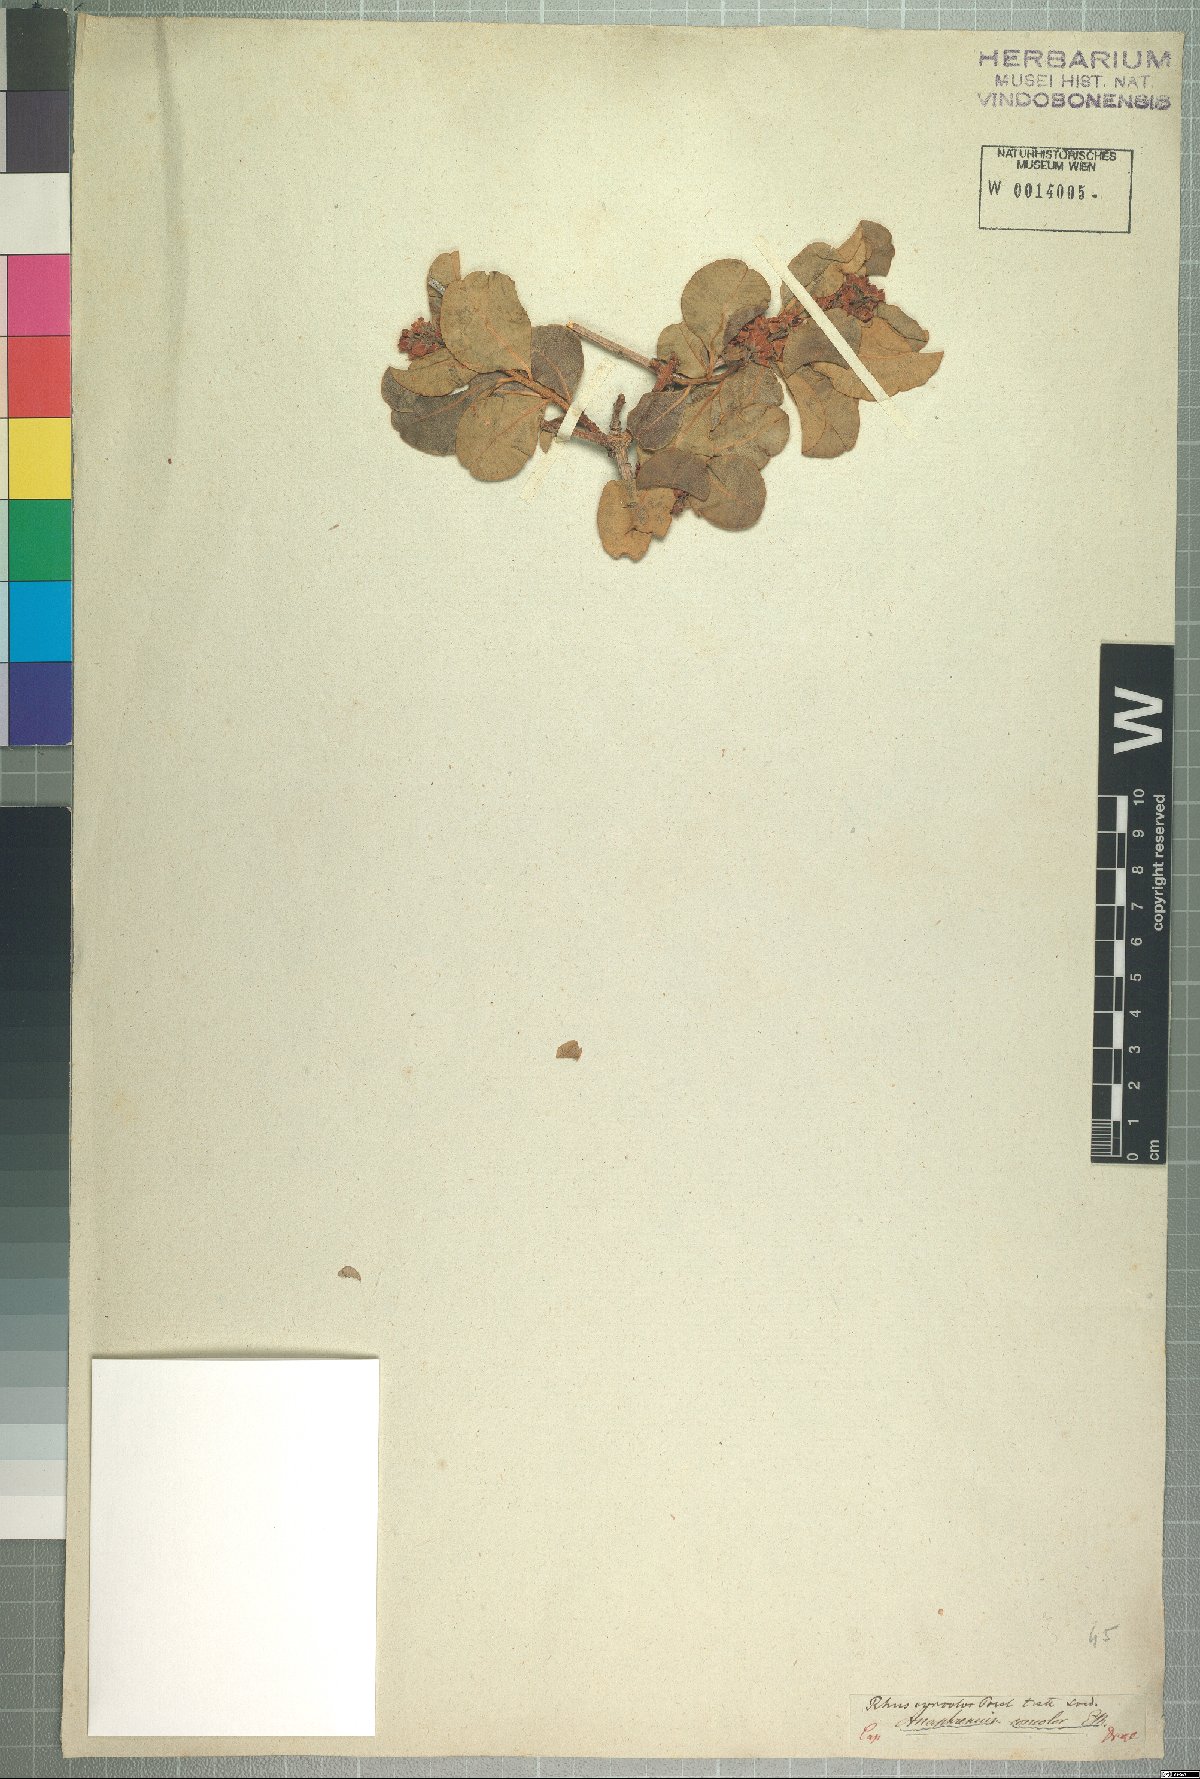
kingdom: Plantae
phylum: Tracheophyta
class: Magnoliopsida
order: Sapindales
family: Anacardiaceae
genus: Ozoroa
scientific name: Ozoroa concolor
